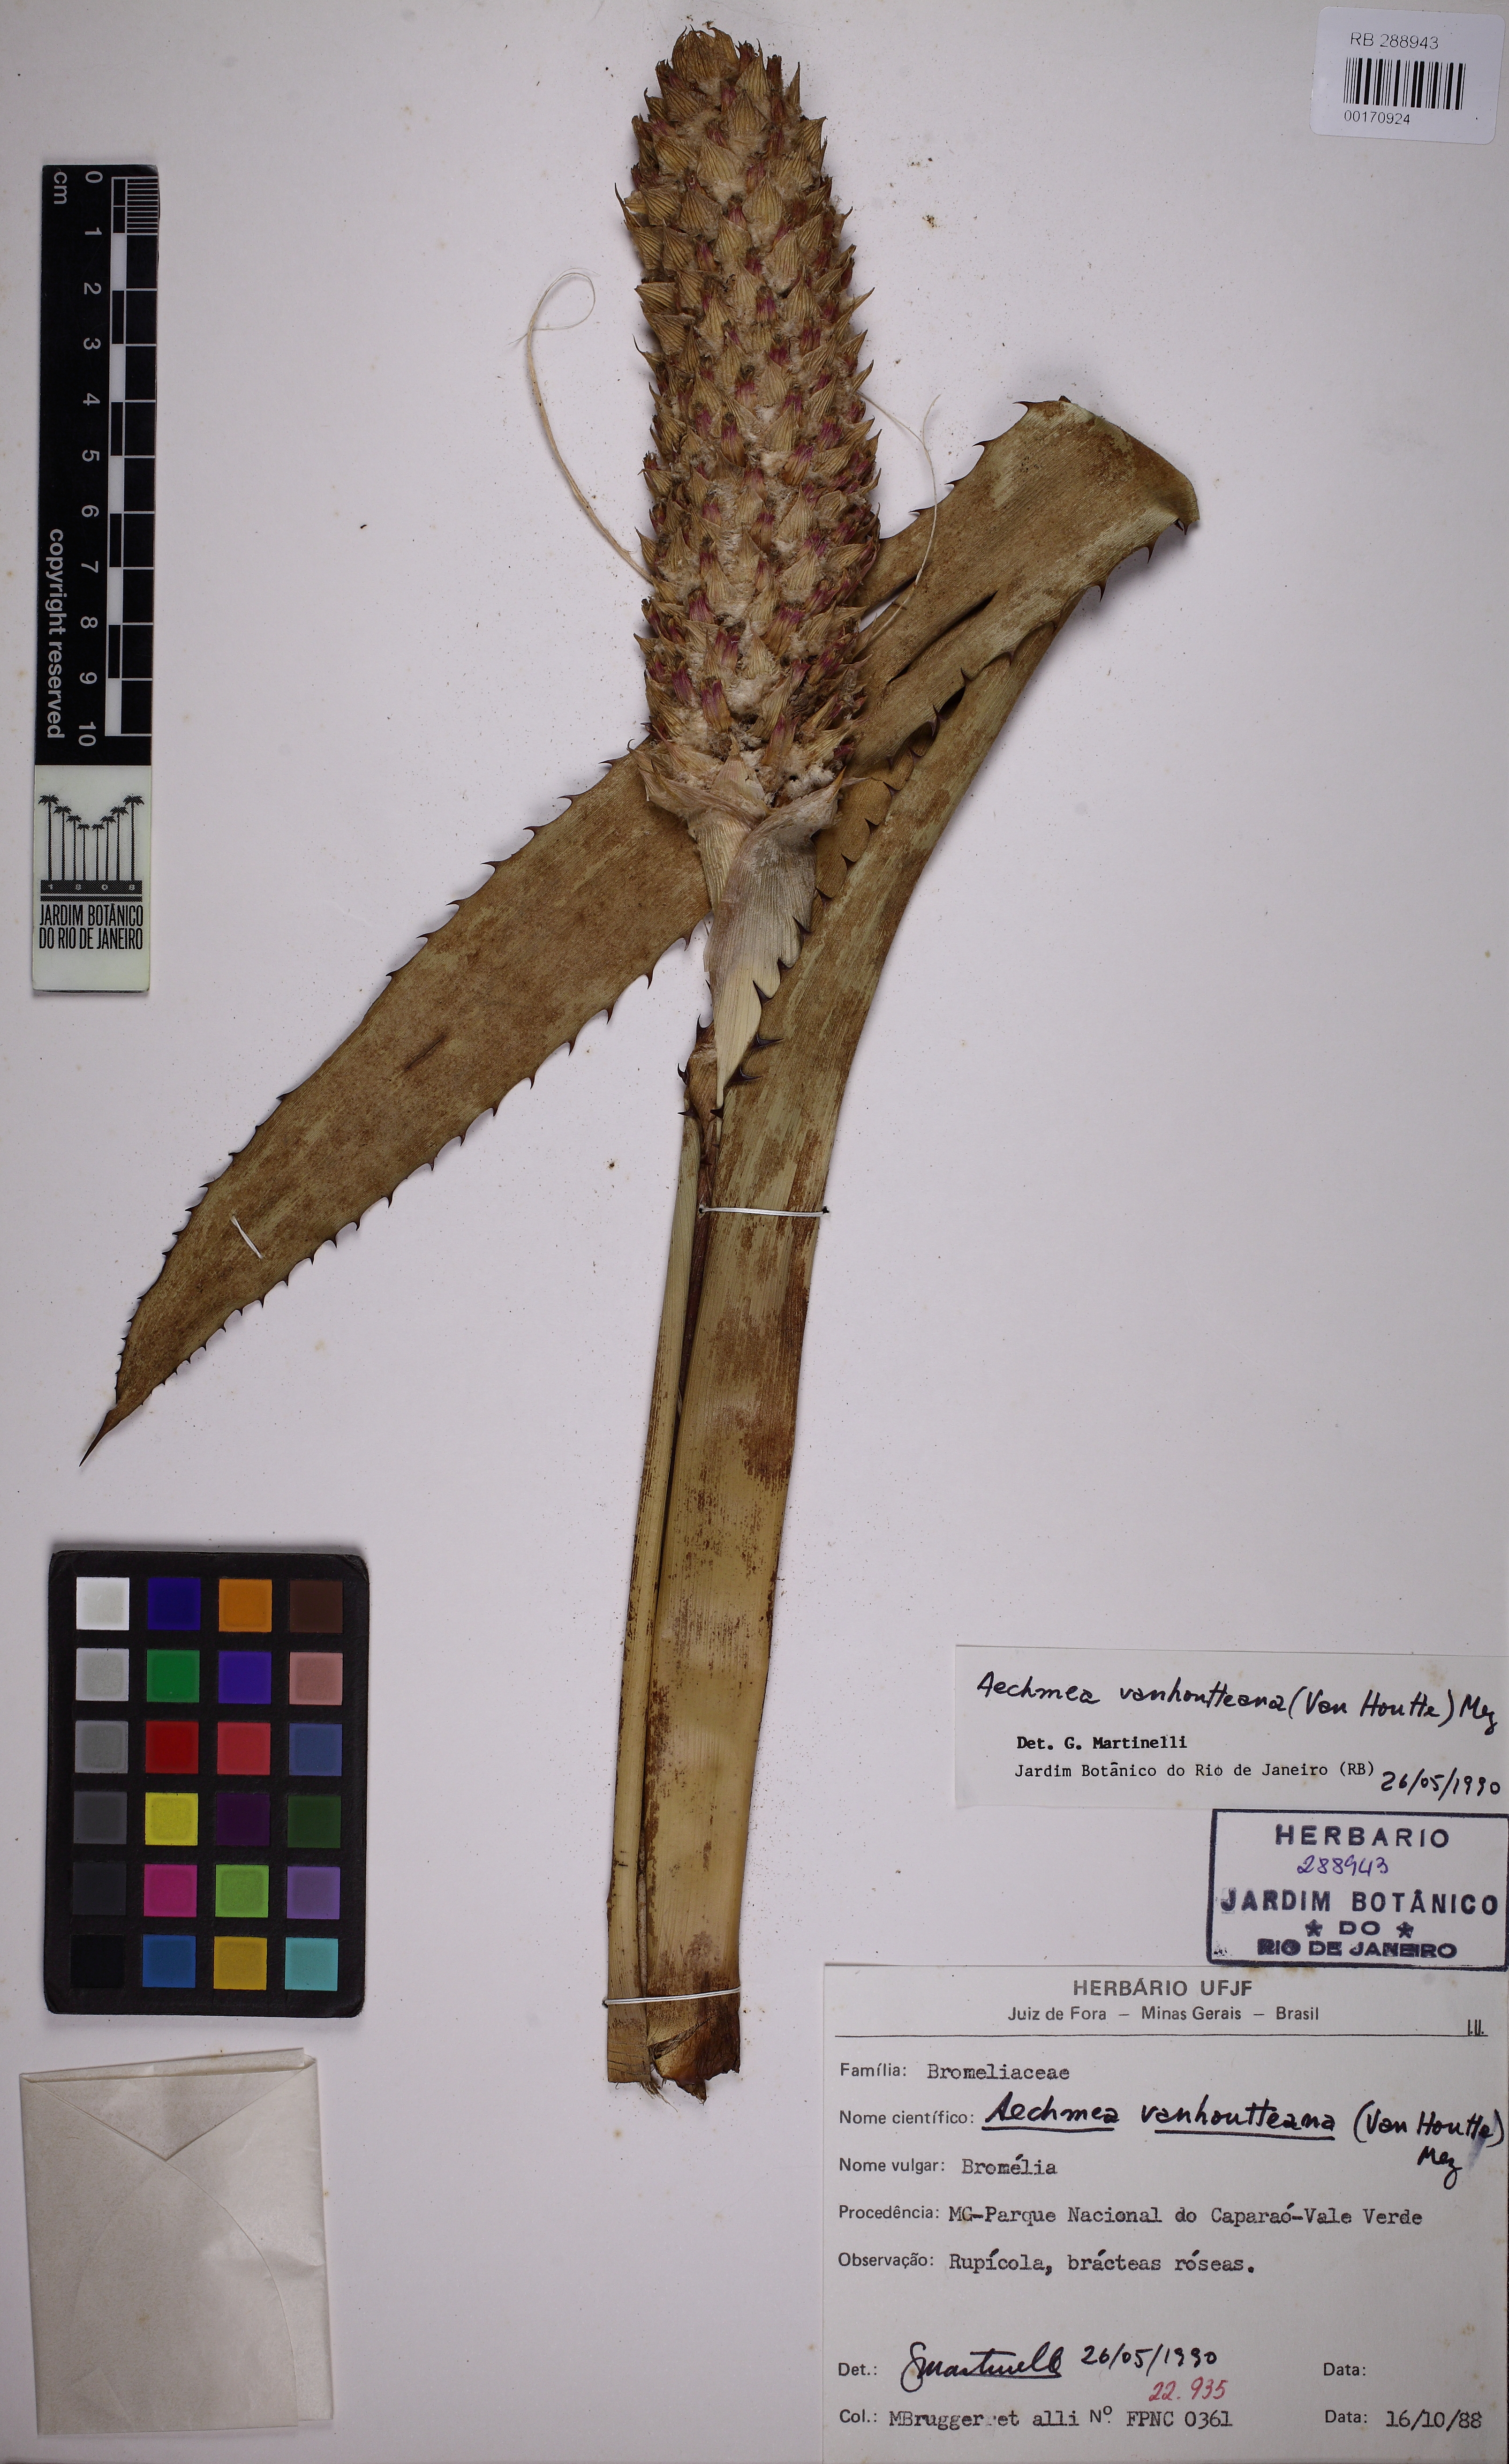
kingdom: Plantae
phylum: Tracheophyta
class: Liliopsida
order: Poales
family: Bromeliaceae
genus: Aechmea
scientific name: Aechmea vanhoutteana
